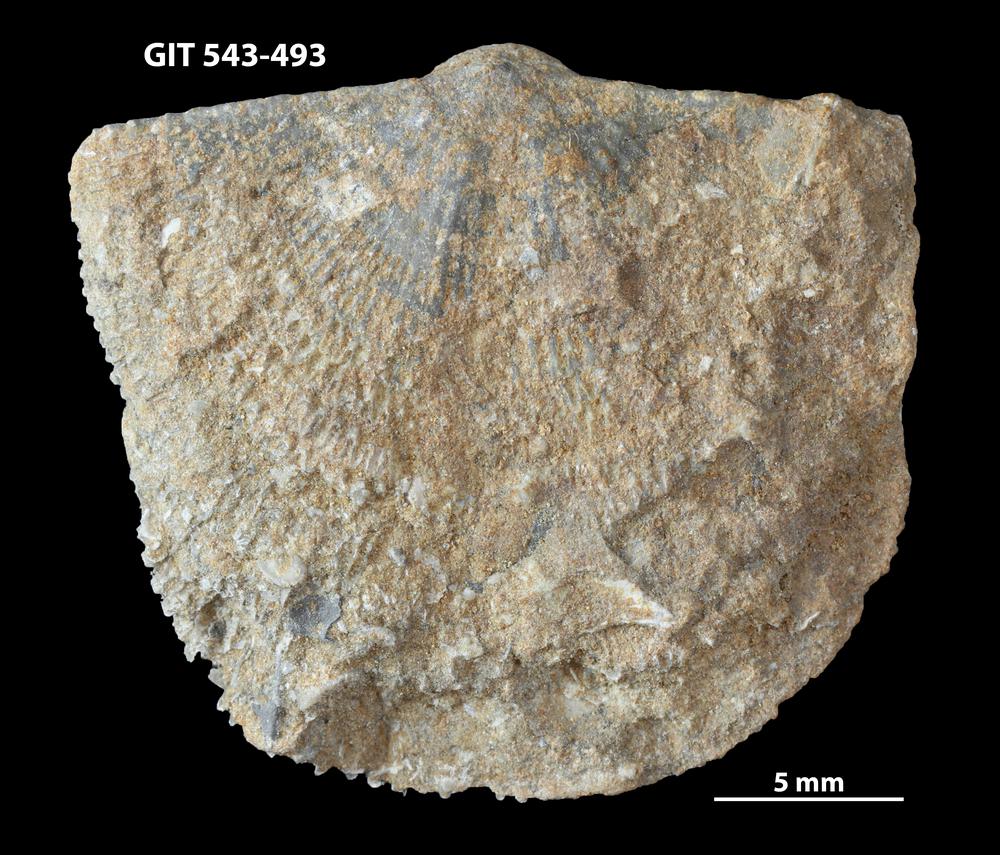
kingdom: Animalia
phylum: Brachiopoda
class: Rhynchonellata
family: Clitambonitidae
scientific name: Clitambonitidae
